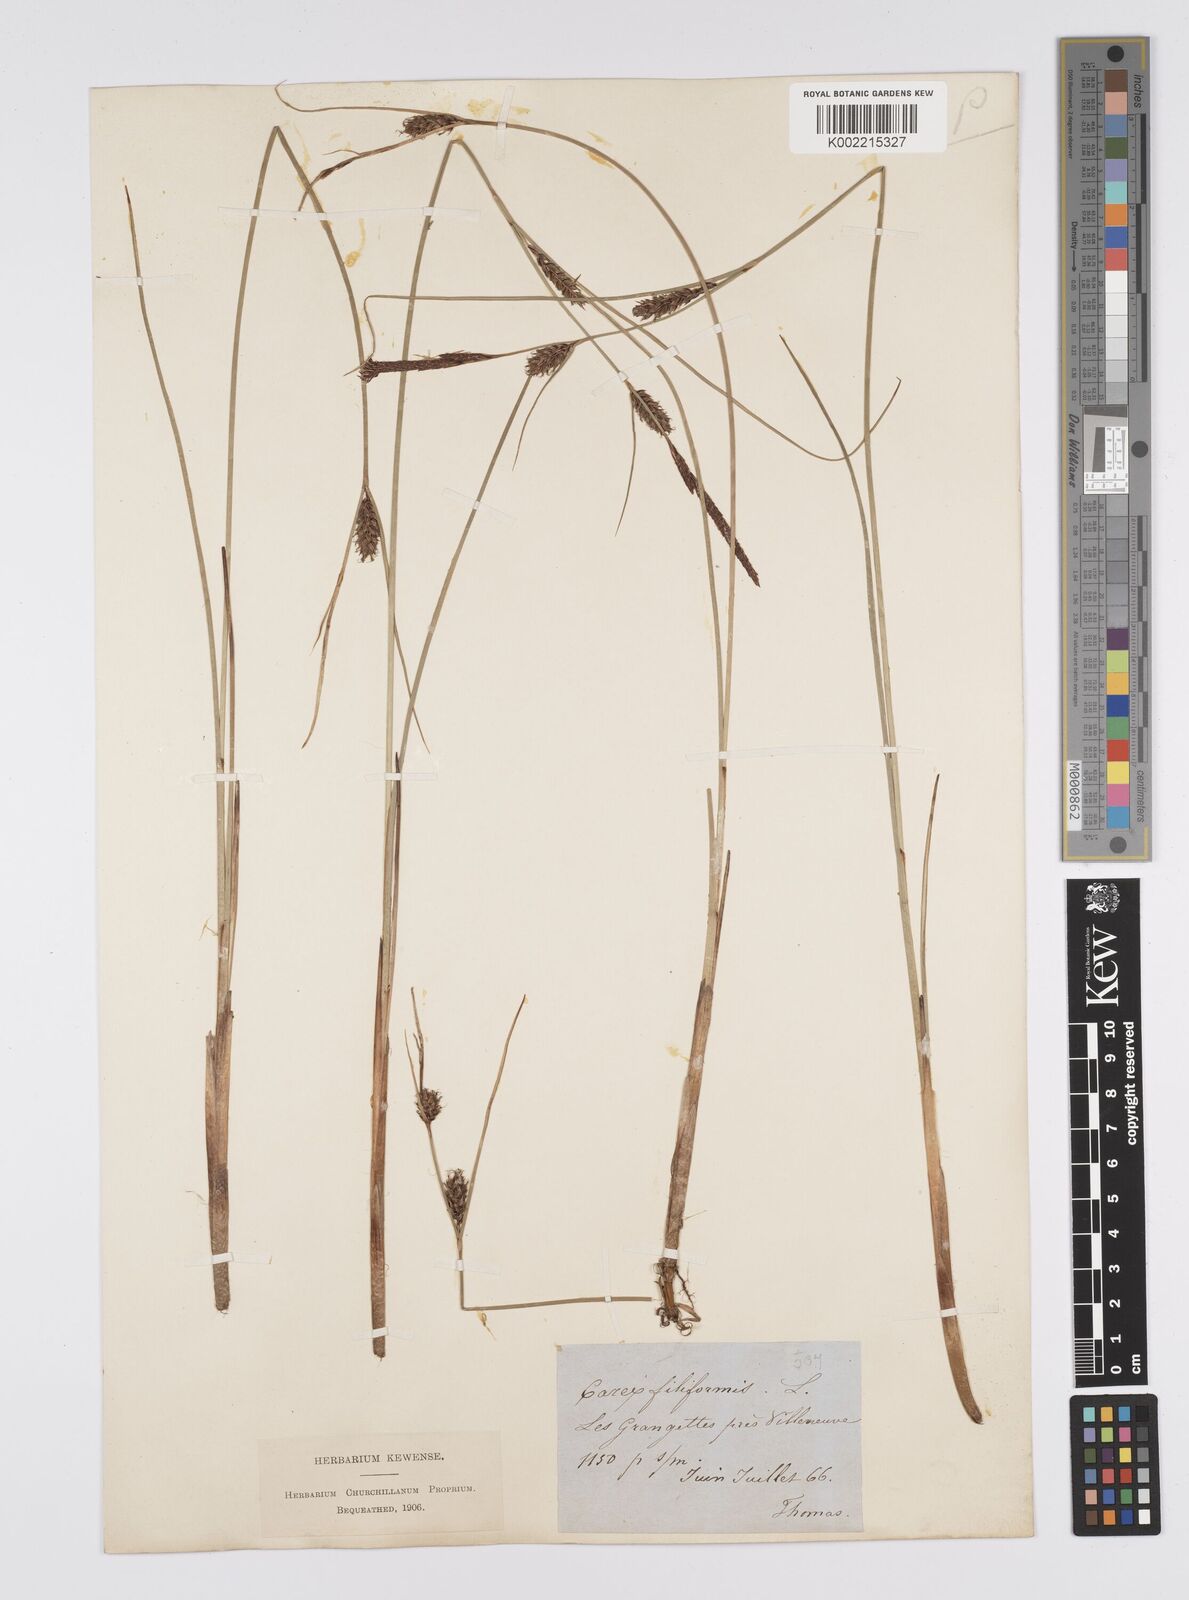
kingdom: Plantae
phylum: Tracheophyta
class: Liliopsida
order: Poales
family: Cyperaceae
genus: Carex
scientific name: Carex lasiocarpa
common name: Slender sedge
